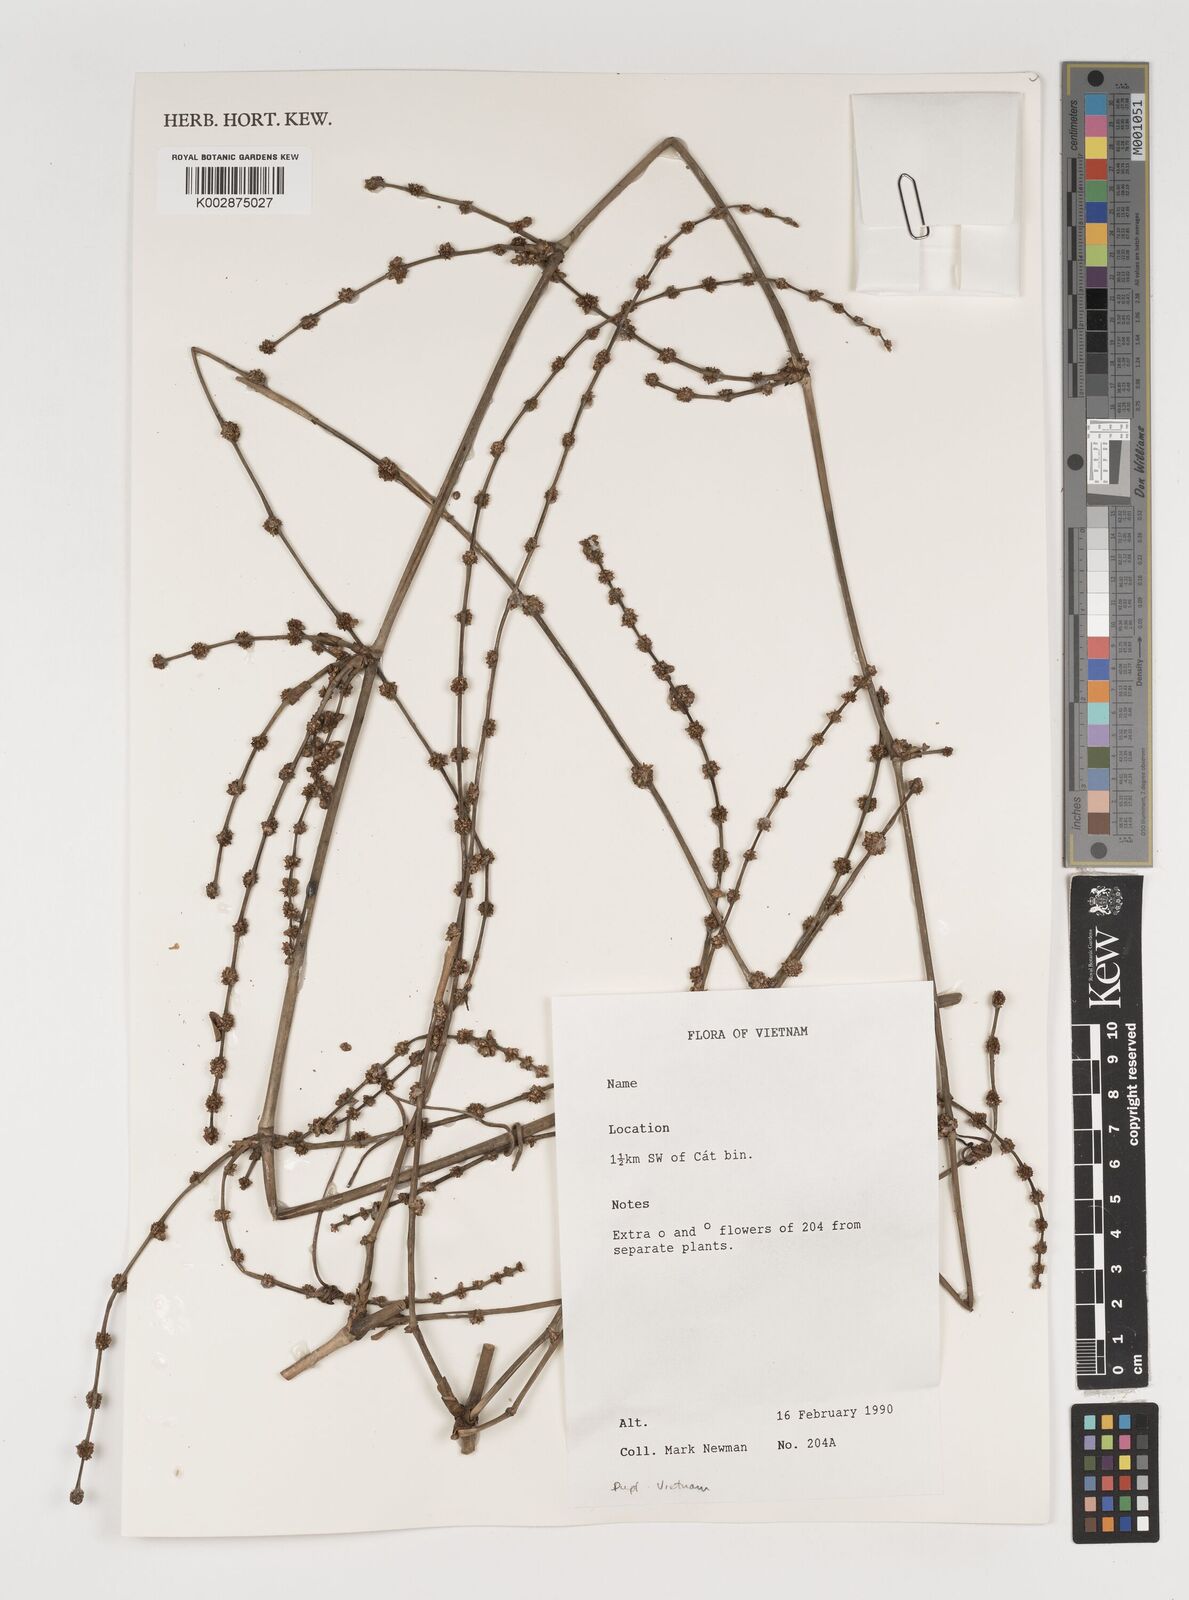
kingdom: Plantae
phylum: Tracheophyta
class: Liliopsida
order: Poales
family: Poaceae
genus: Melocalamus
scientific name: Melocalamus
